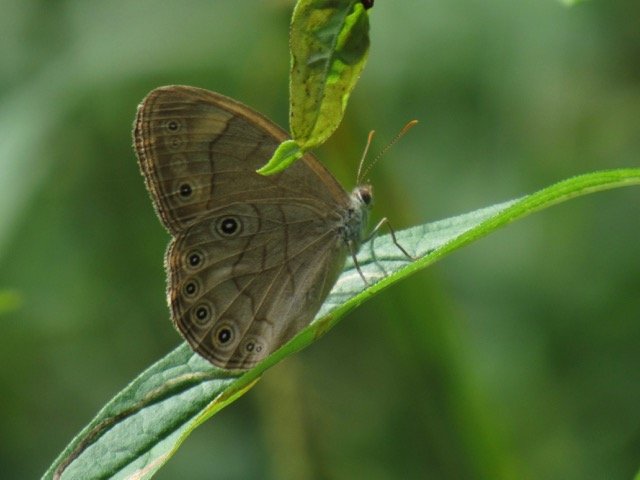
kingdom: Animalia
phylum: Arthropoda
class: Insecta
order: Lepidoptera
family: Nymphalidae
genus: Lethe
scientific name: Lethe eurydice
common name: Appalachian Eyed Brown
